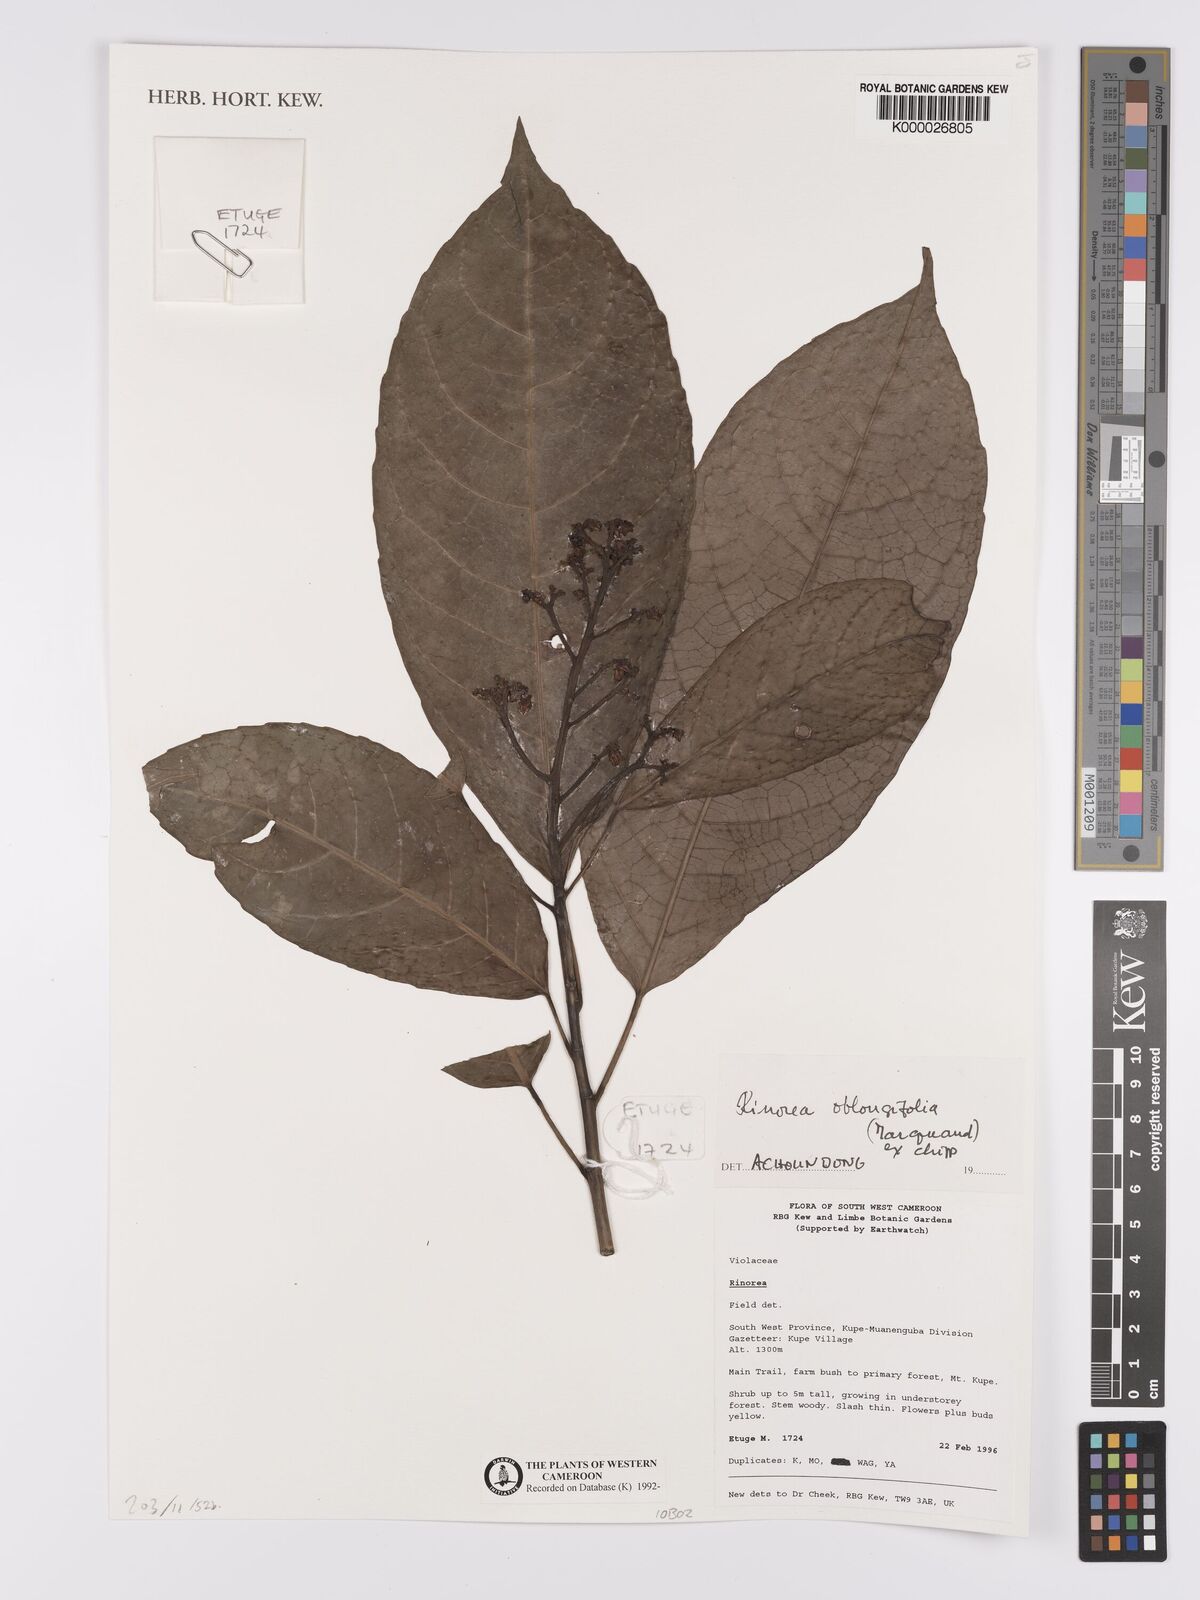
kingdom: Plantae
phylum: Tracheophyta
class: Magnoliopsida
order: Apiales
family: Pittosporaceae
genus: Marianthus
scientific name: Marianthus coeruleopunctatus
